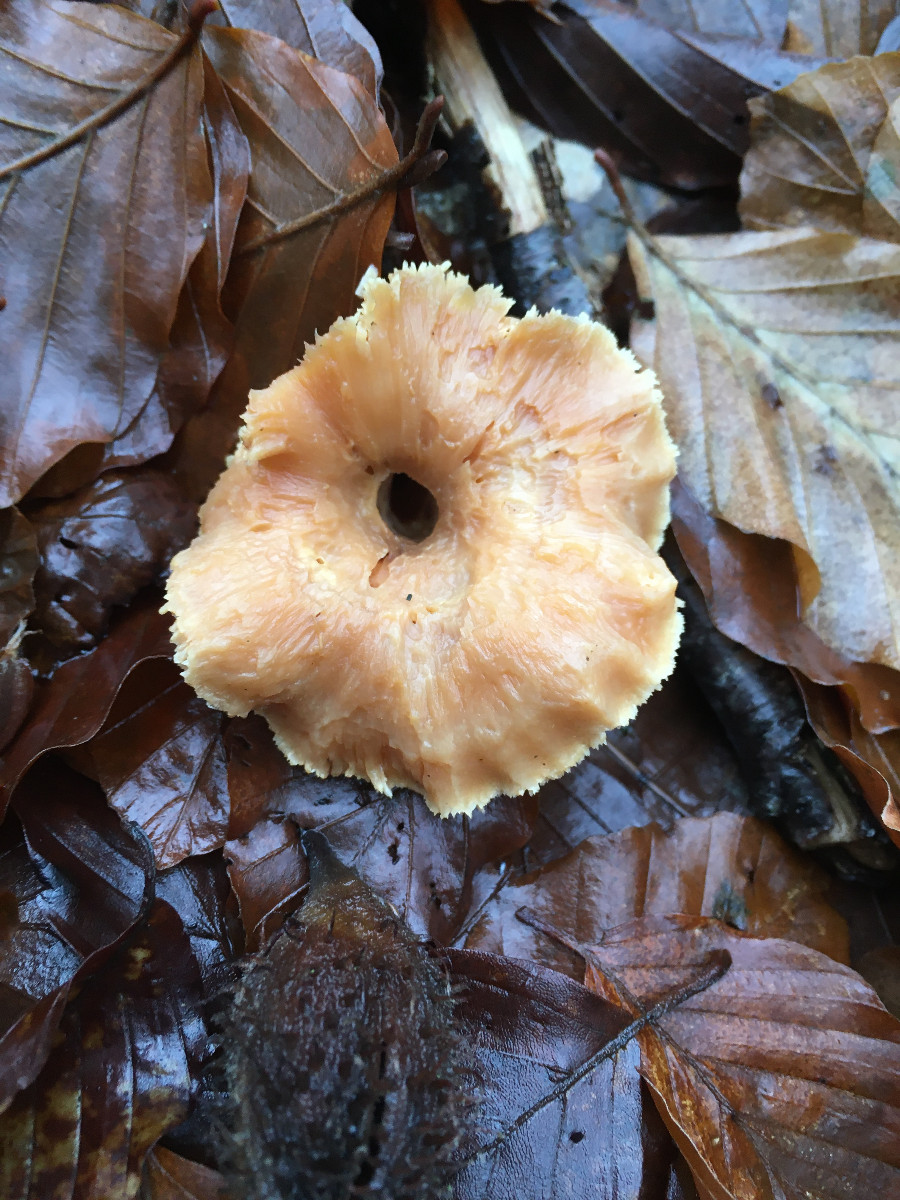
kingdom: Fungi
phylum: Basidiomycota
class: Agaricomycetes
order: Cantharellales
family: Hydnaceae
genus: Hydnum
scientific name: Hydnum
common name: pigsvamp
